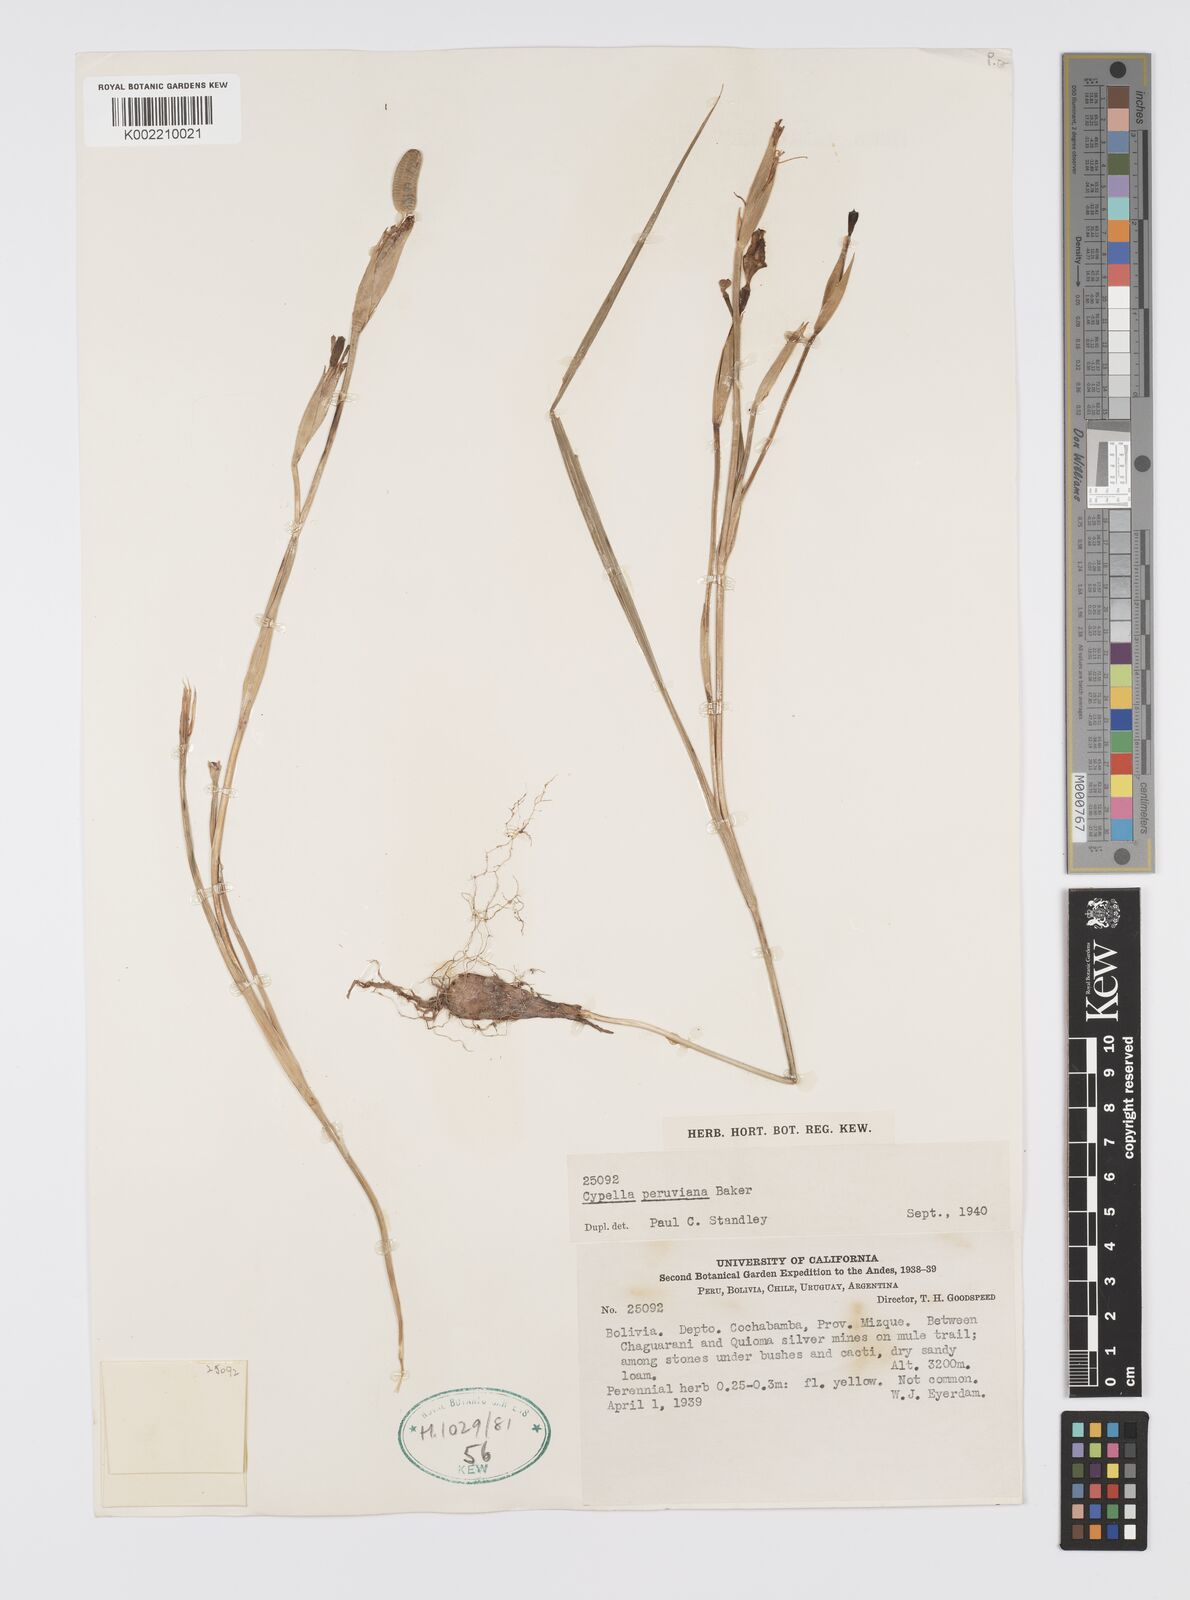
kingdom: Plantae
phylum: Tracheophyta
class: Liliopsida
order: Asparagales
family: Iridaceae
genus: Hesperoxiphion
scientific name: Hesperoxiphion peruvianum
